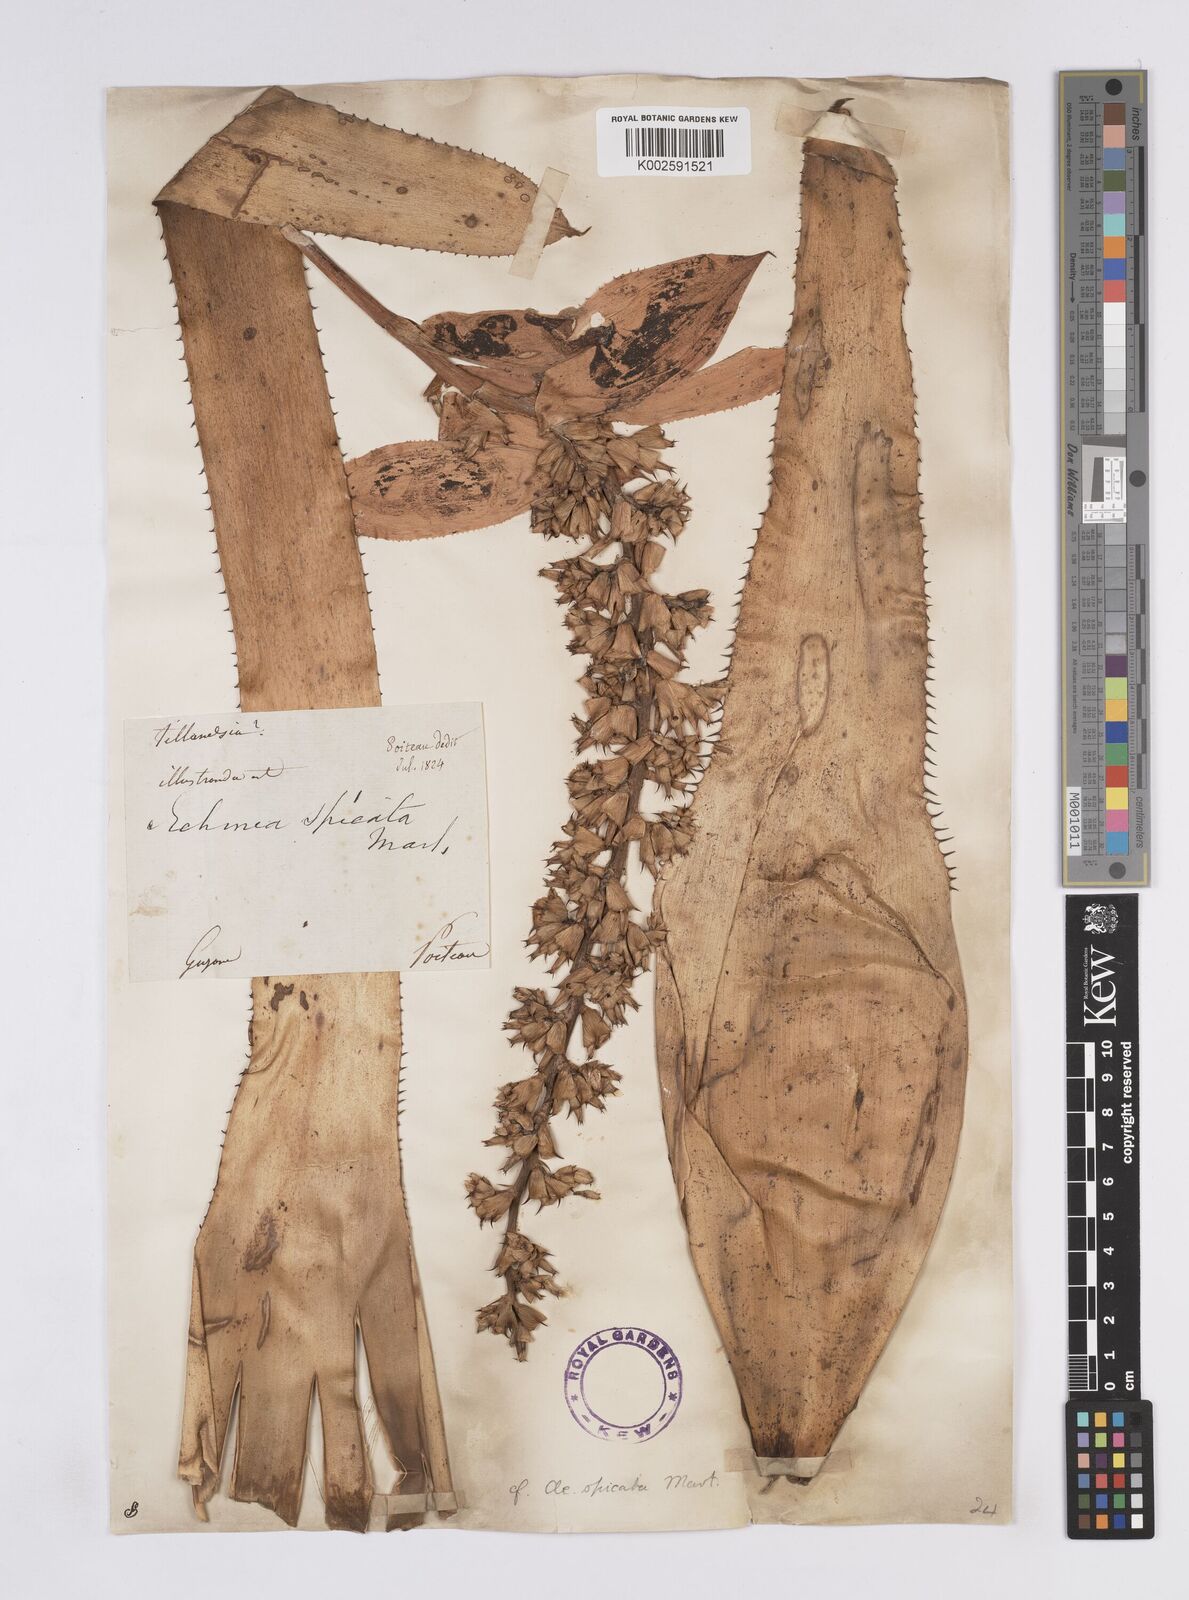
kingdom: Plantae
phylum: Tracheophyta
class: Liliopsida
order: Poales
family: Bromeliaceae
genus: Aechmea
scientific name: Aechmea mertensii
